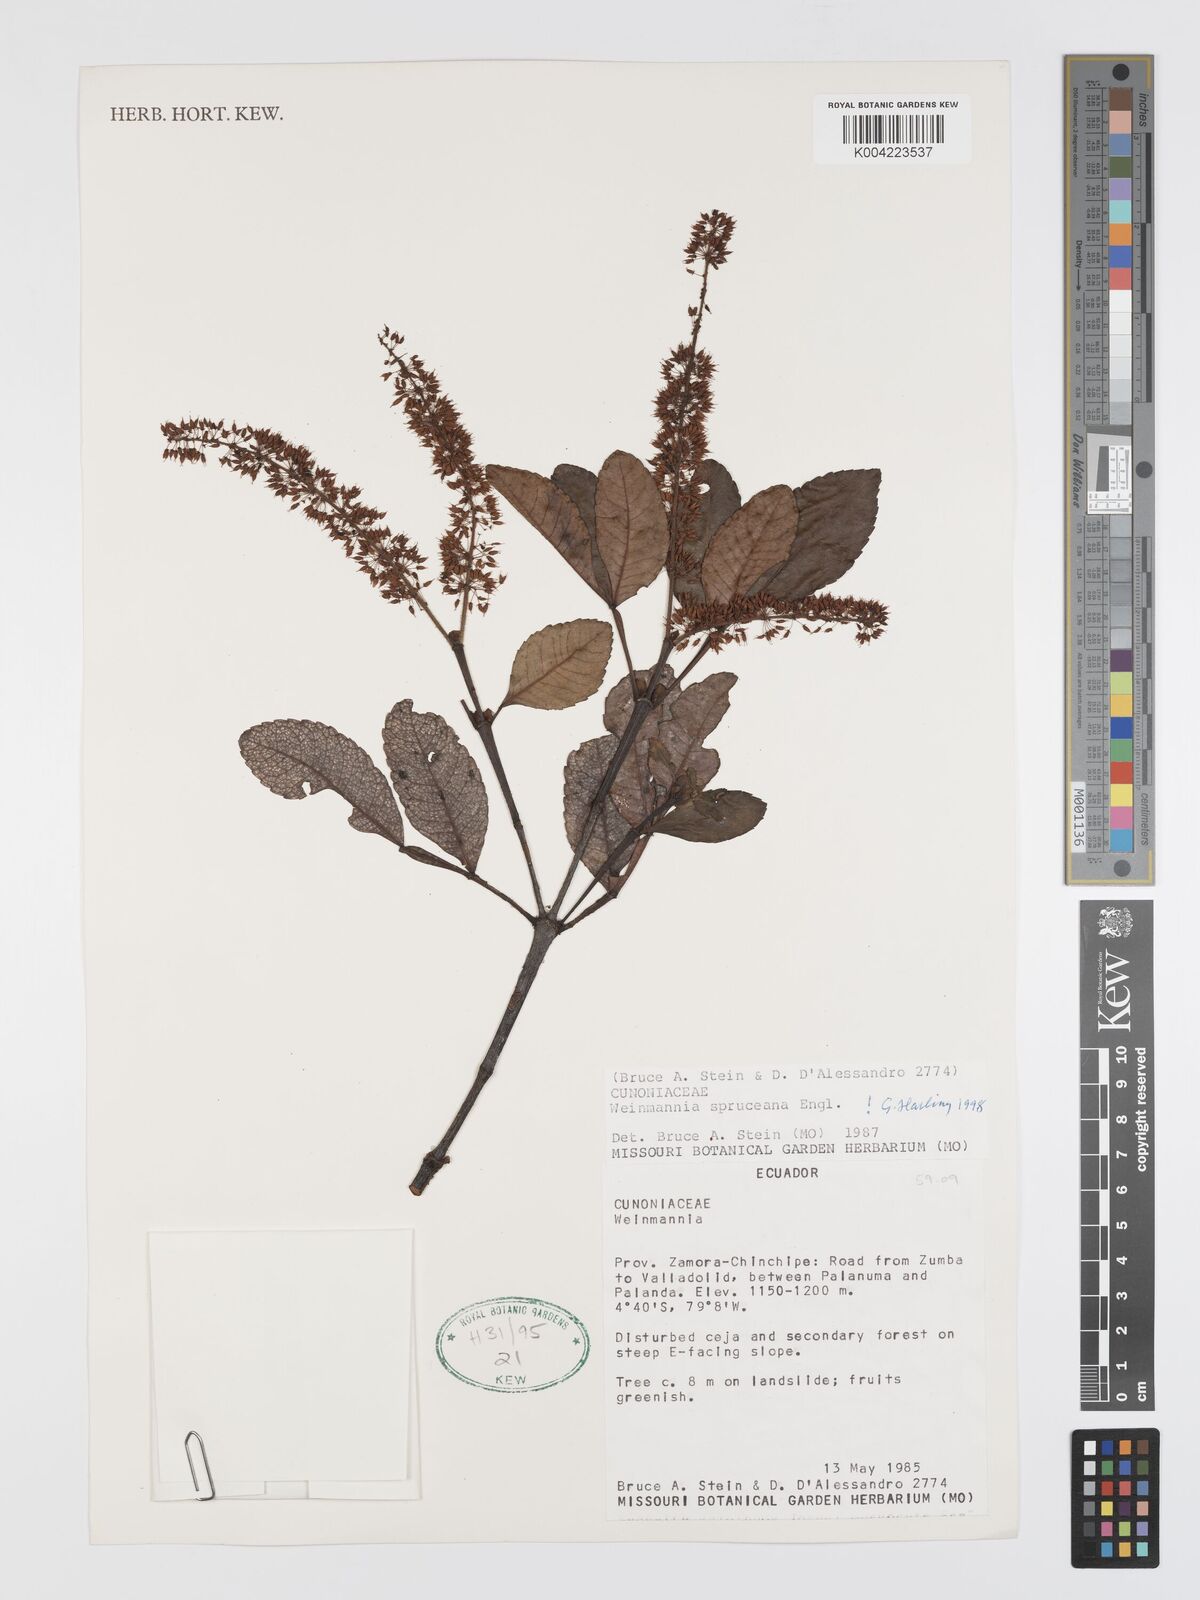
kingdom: Plantae
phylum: Tracheophyta
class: Magnoliopsida
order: Oxalidales
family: Cunoniaceae
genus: Weinmannia
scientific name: Weinmannia spruceana
